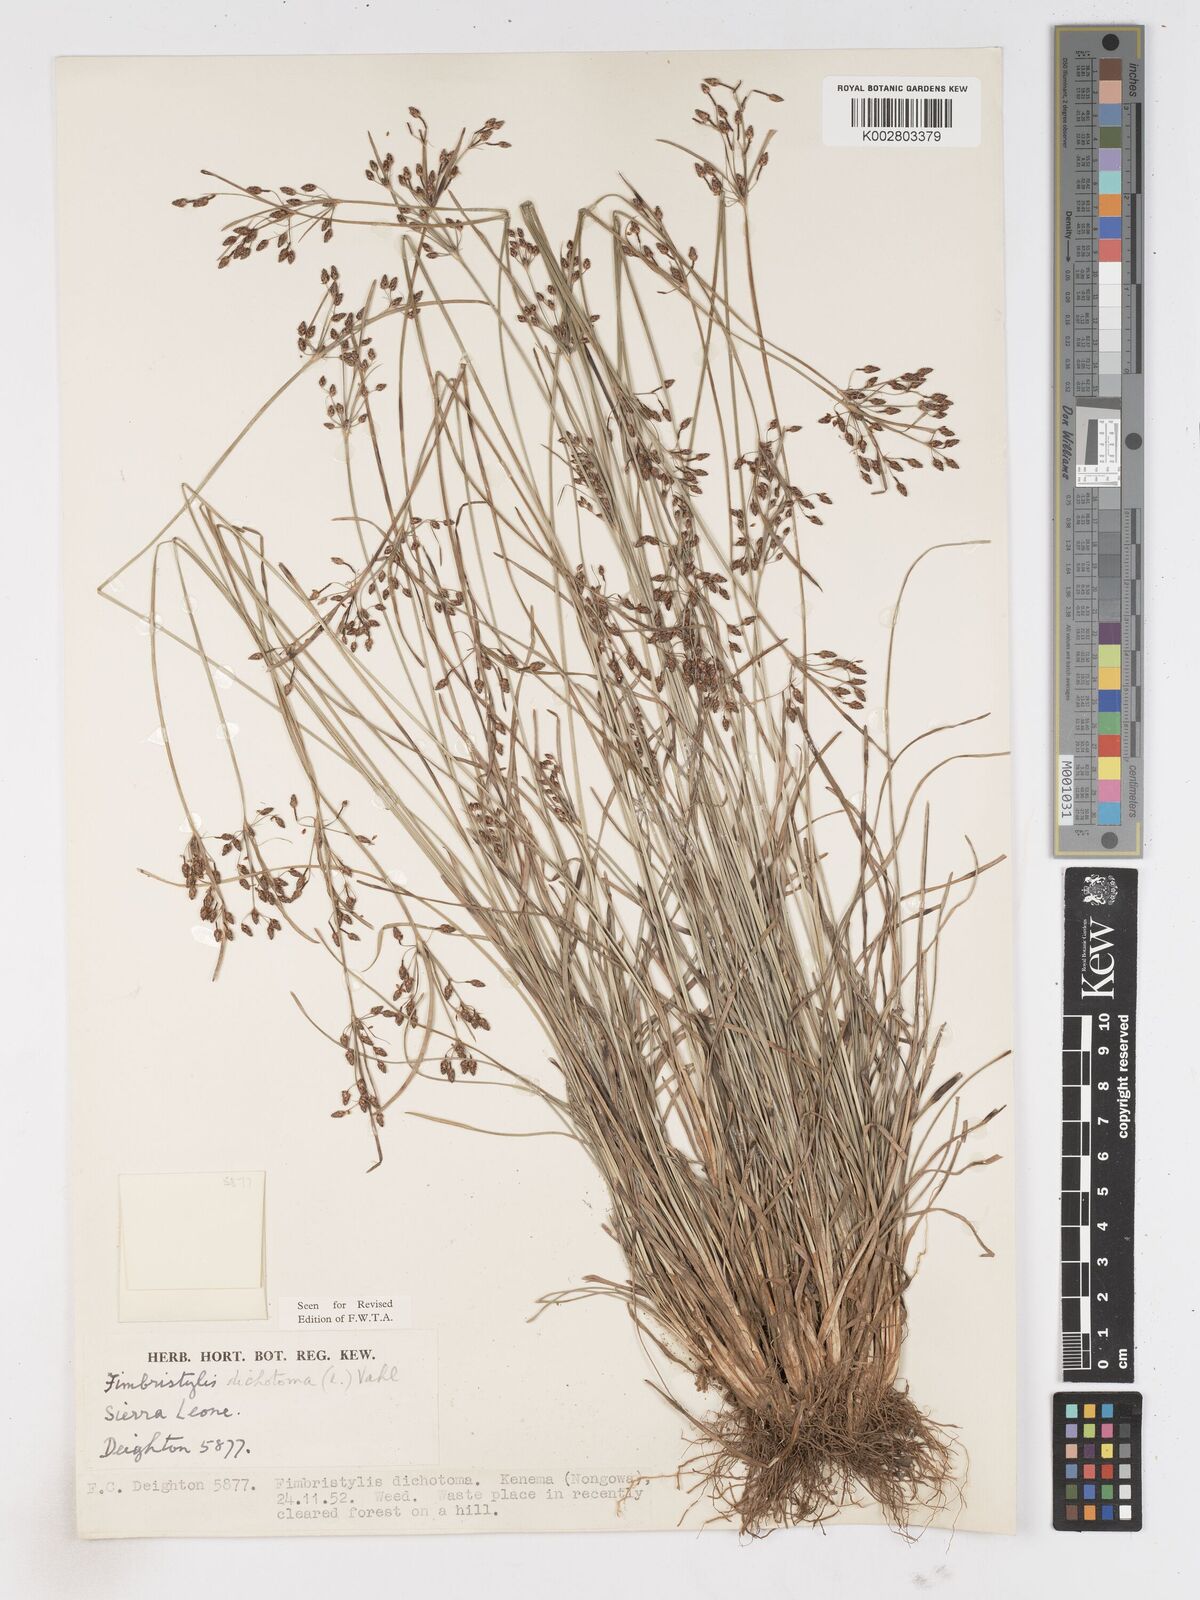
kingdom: Plantae
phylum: Tracheophyta
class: Liliopsida
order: Poales
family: Cyperaceae
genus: Fimbristylis
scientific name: Fimbristylis dichotoma
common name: Forked fimbry
